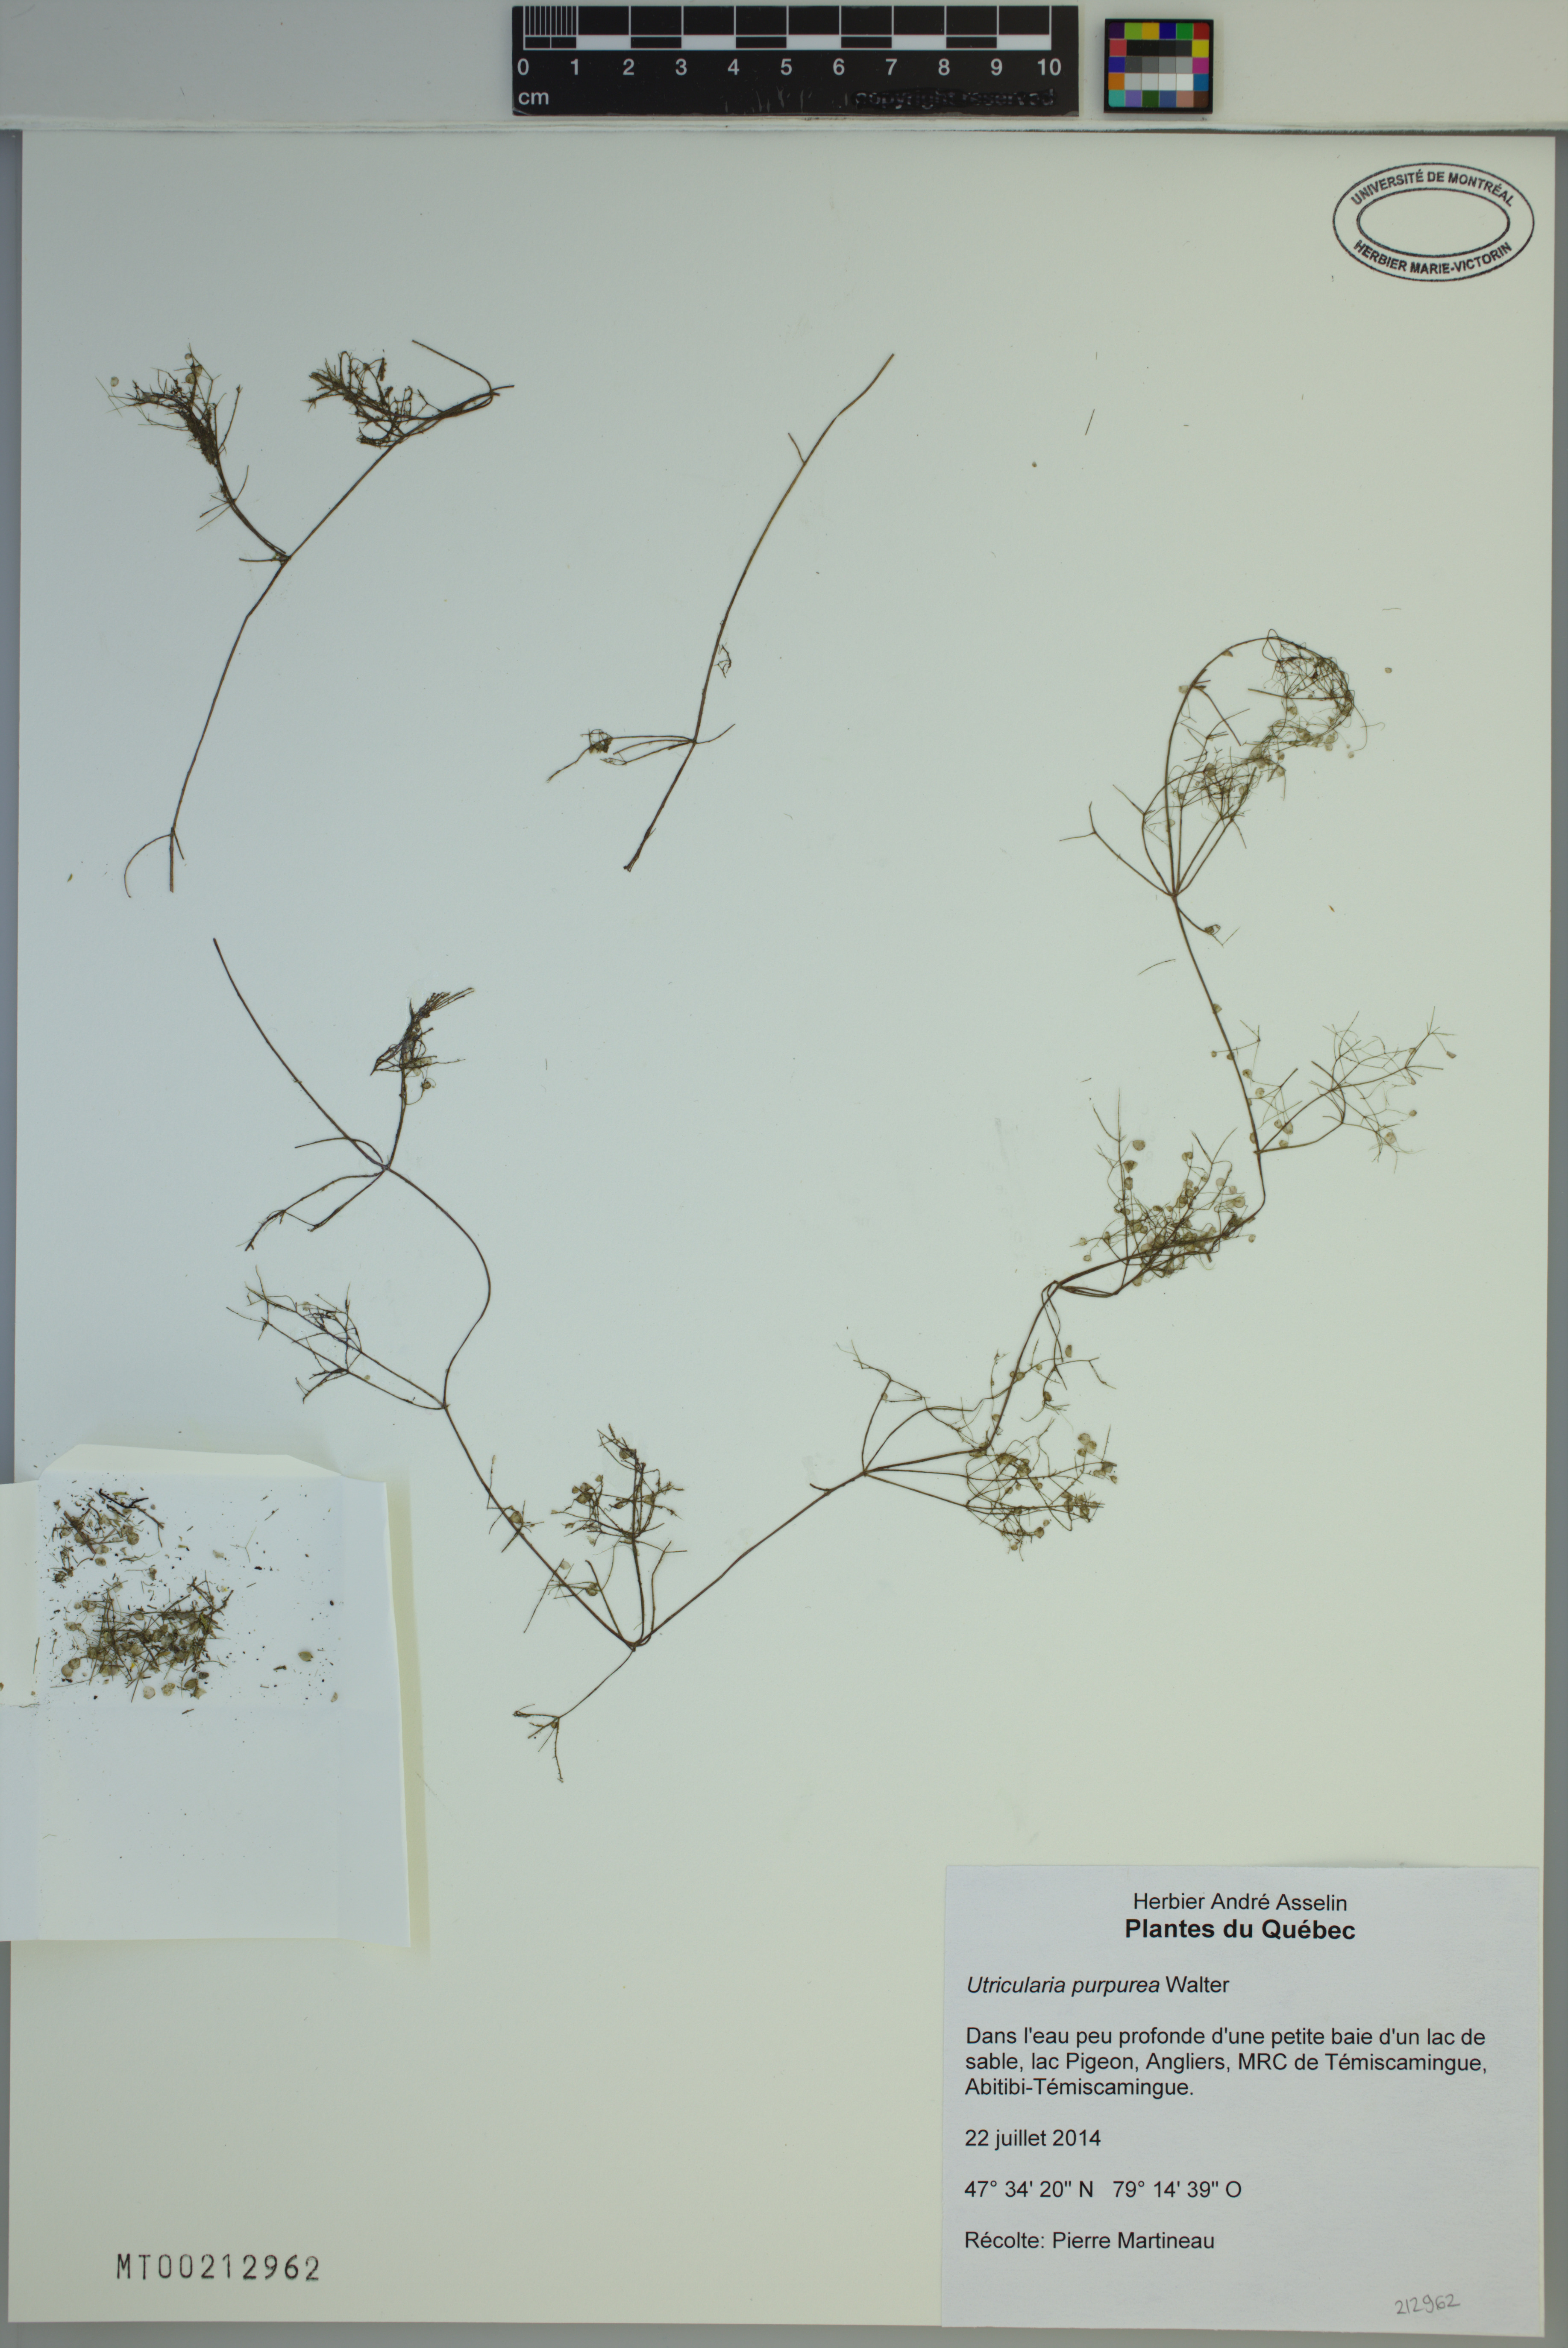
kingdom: Plantae
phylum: Tracheophyta
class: Magnoliopsida
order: Lamiales
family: Lentibulariaceae
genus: Utricularia
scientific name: Utricularia purpurea
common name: Eastern purple bladderwort
